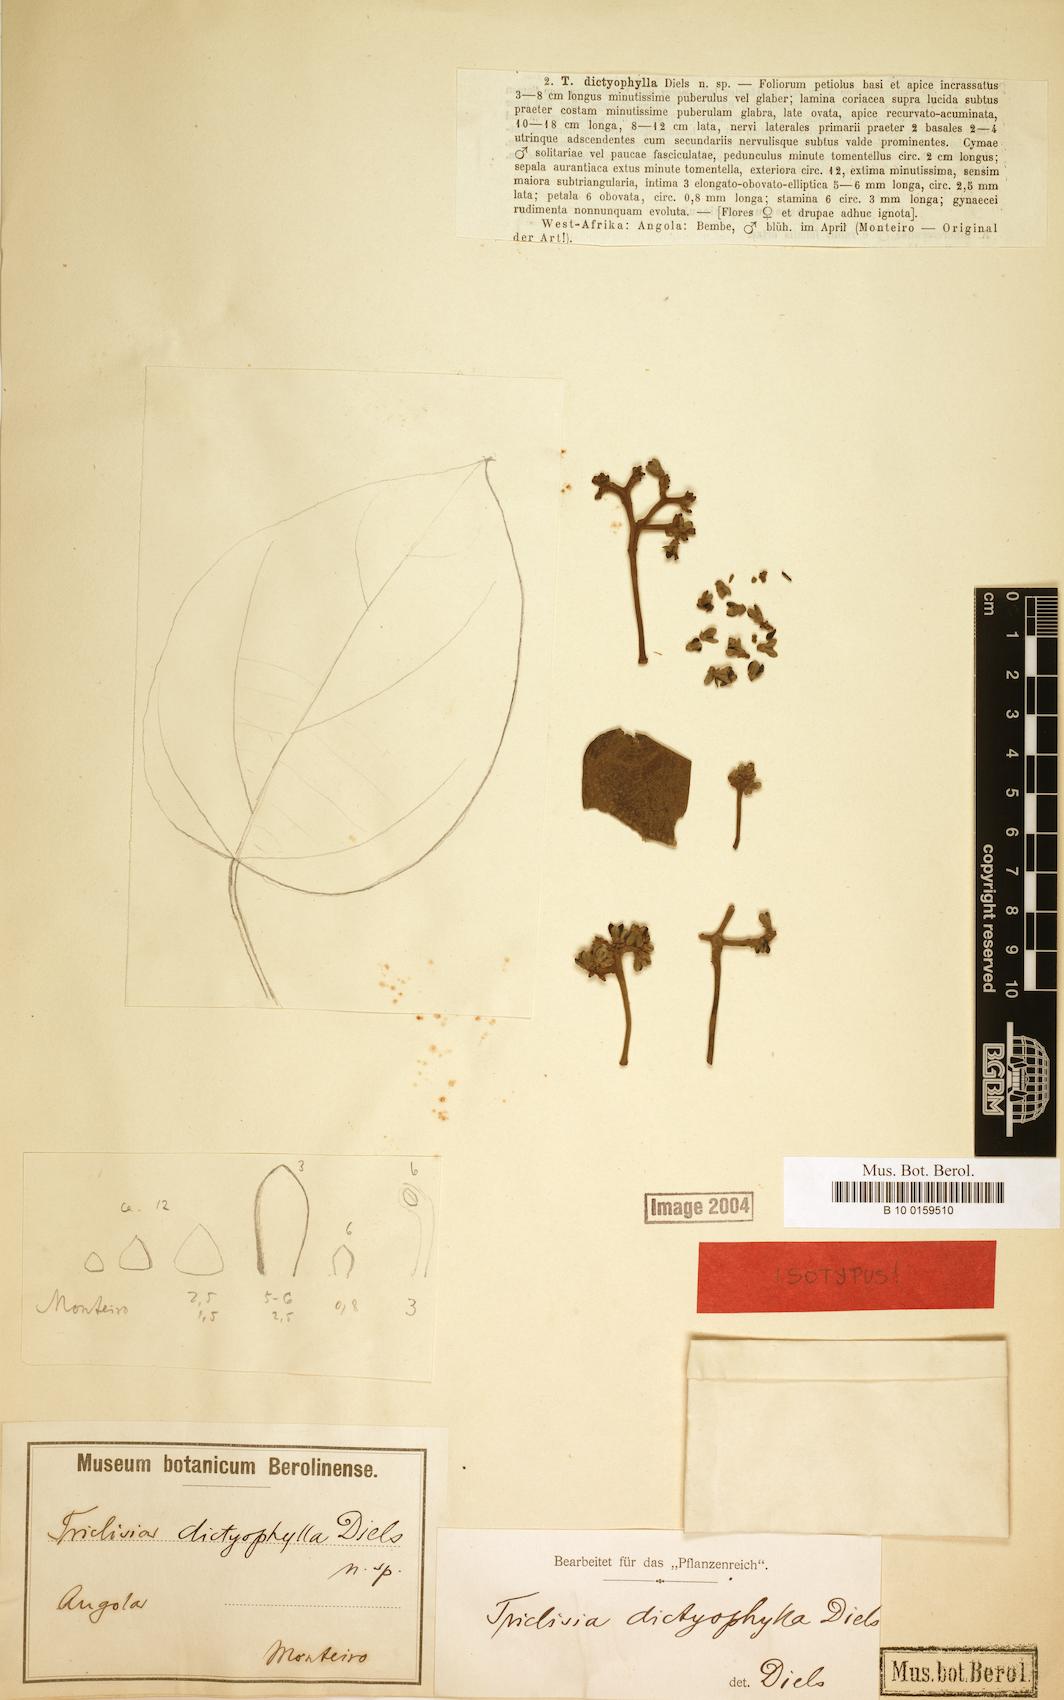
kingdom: Plantae
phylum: Tracheophyta
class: Magnoliopsida
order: Ranunculales
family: Menispermaceae
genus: Triclisia
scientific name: Triclisia dictyophylla
